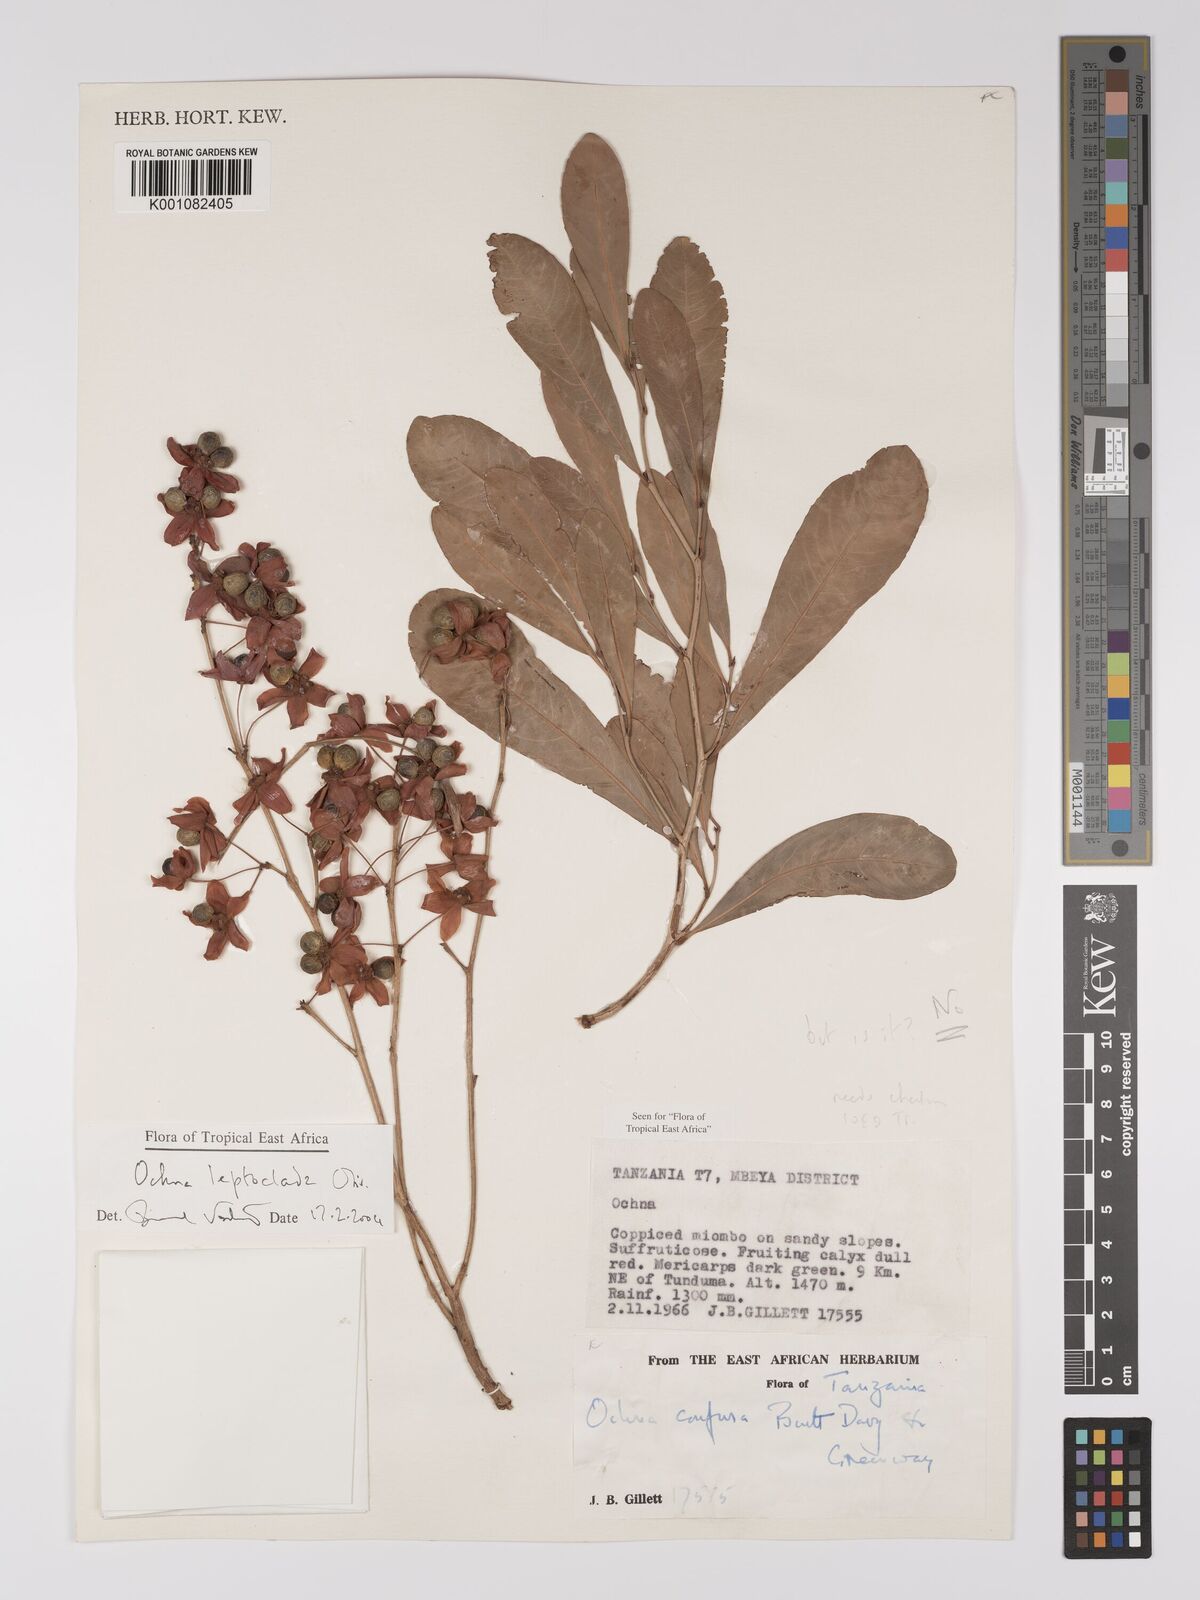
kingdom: Plantae
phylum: Tracheophyta
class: Magnoliopsida
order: Malpighiales
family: Ochnaceae
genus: Ochna
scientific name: Ochna leptoclada
